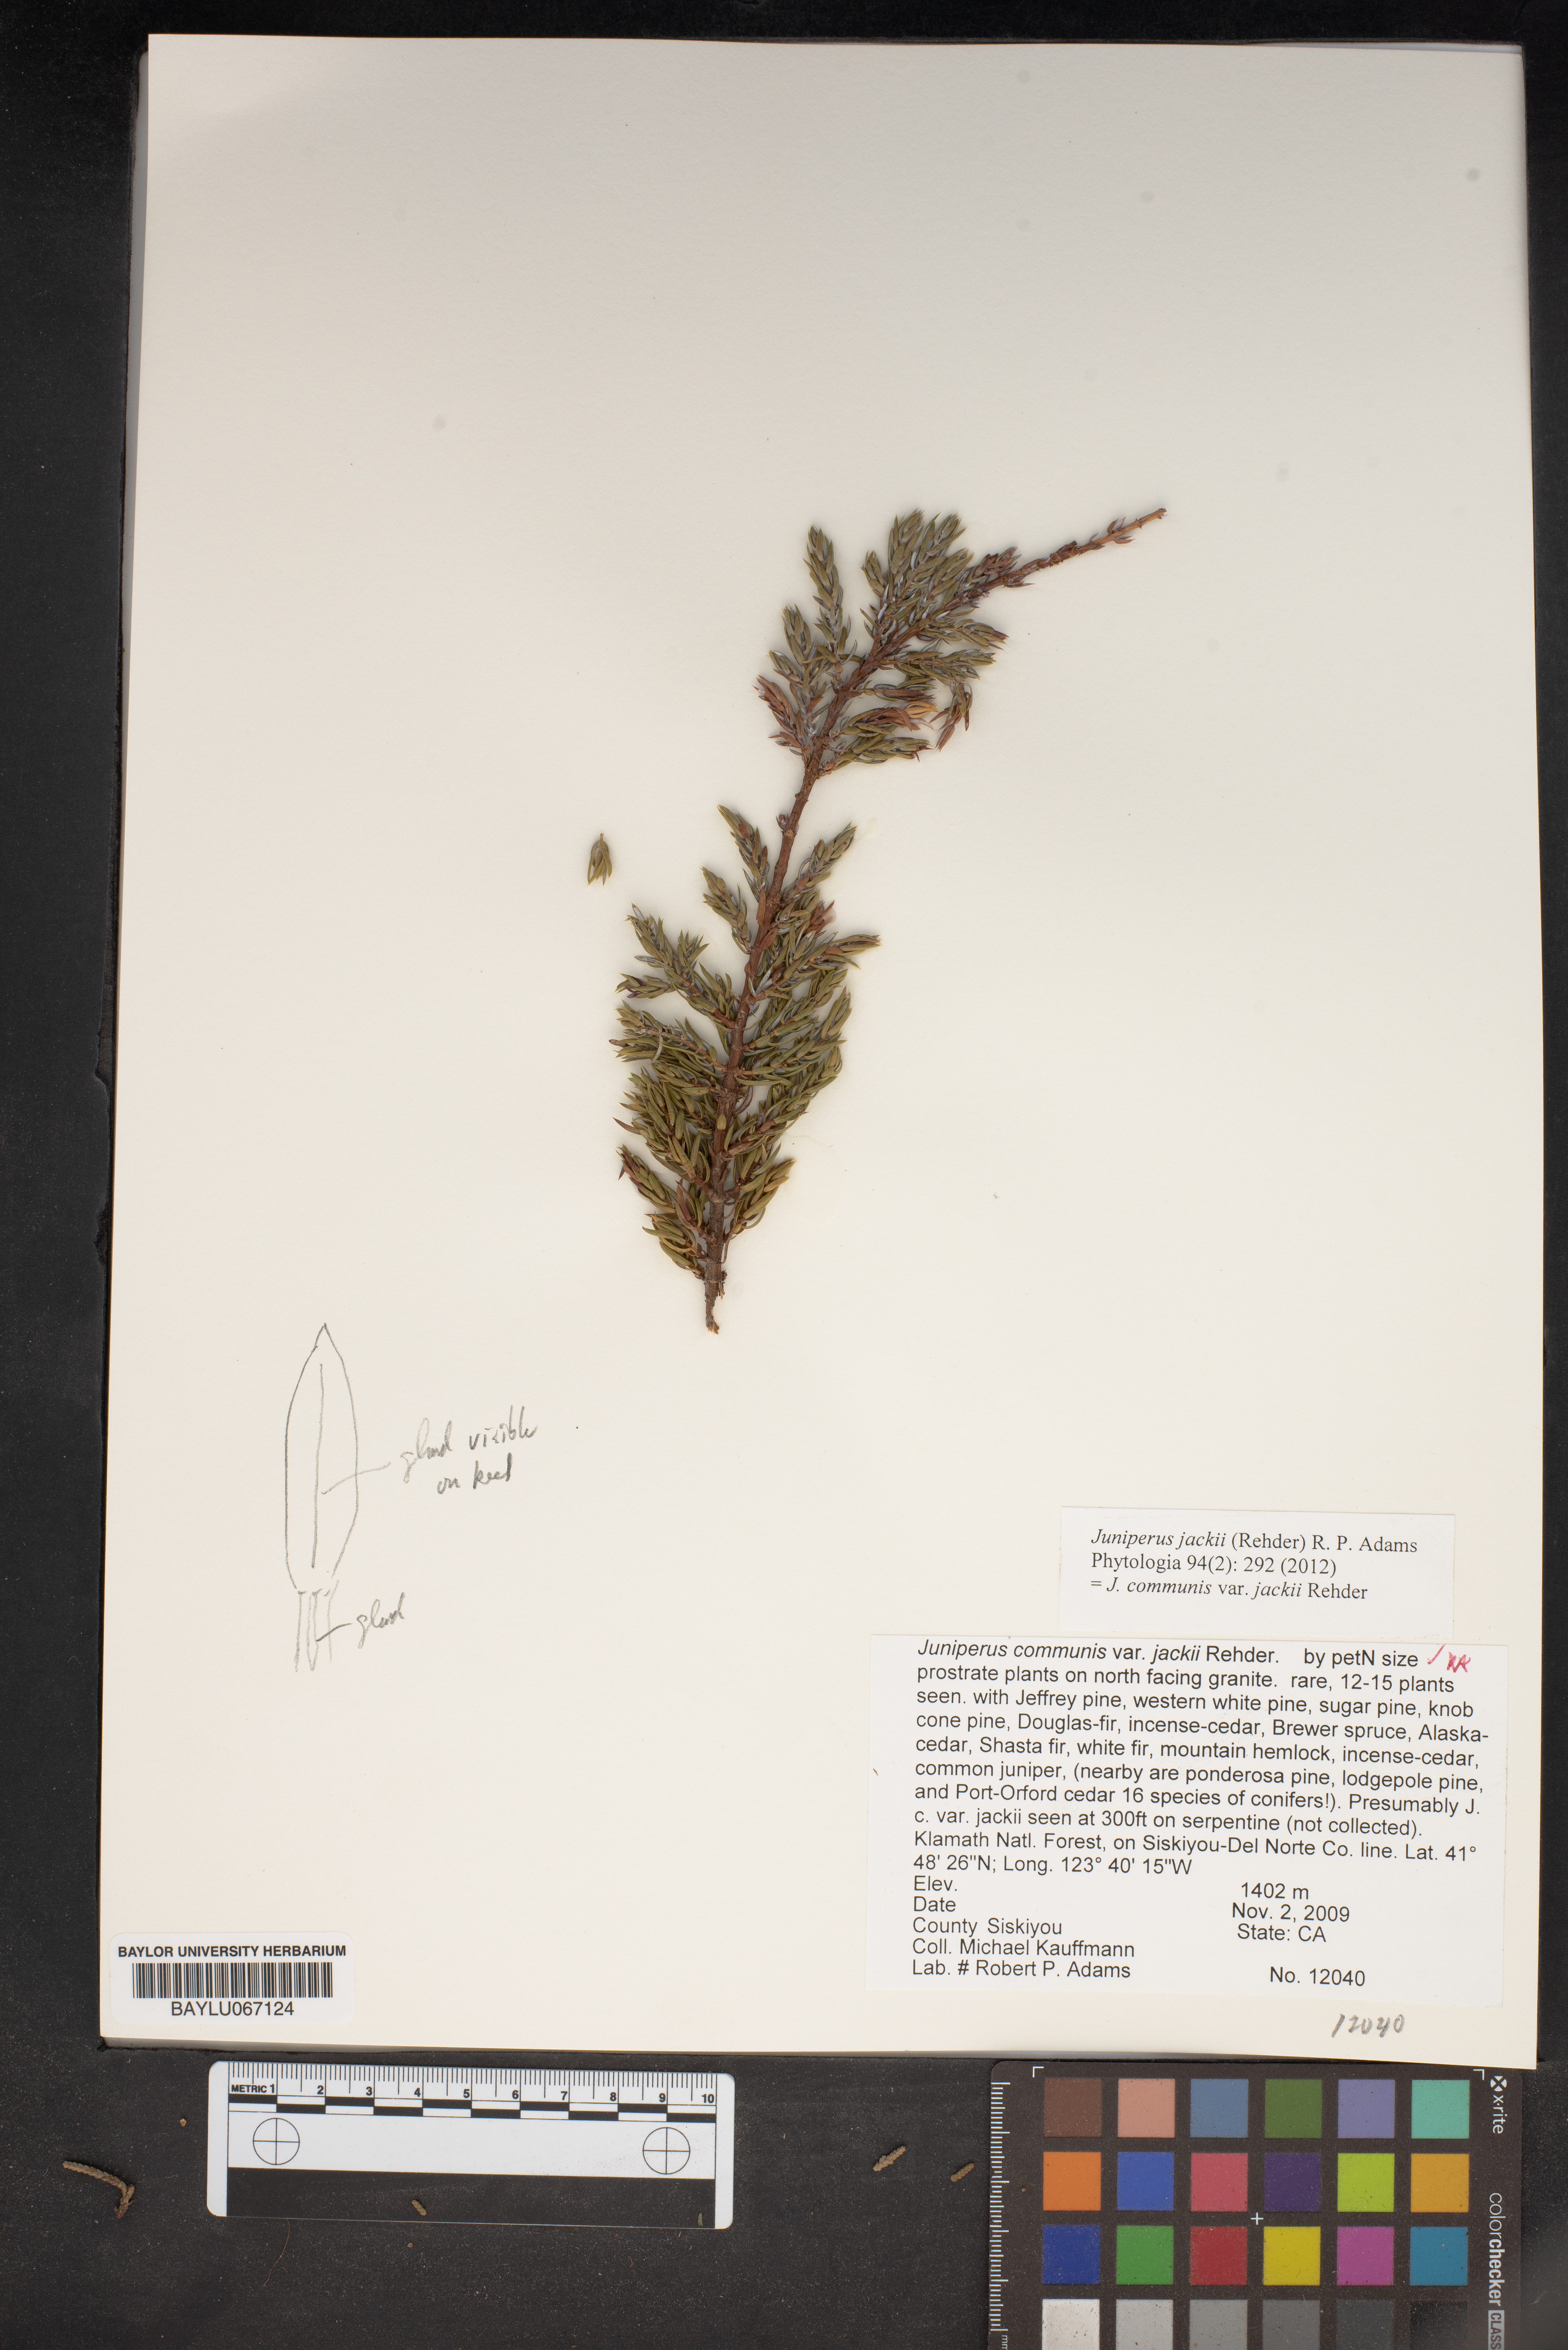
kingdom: Plantae
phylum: Tracheophyta
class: Pinopsida
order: Pinales
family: Cupressaceae
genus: Juniperus
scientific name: Juniperus communis
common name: Common juniper
